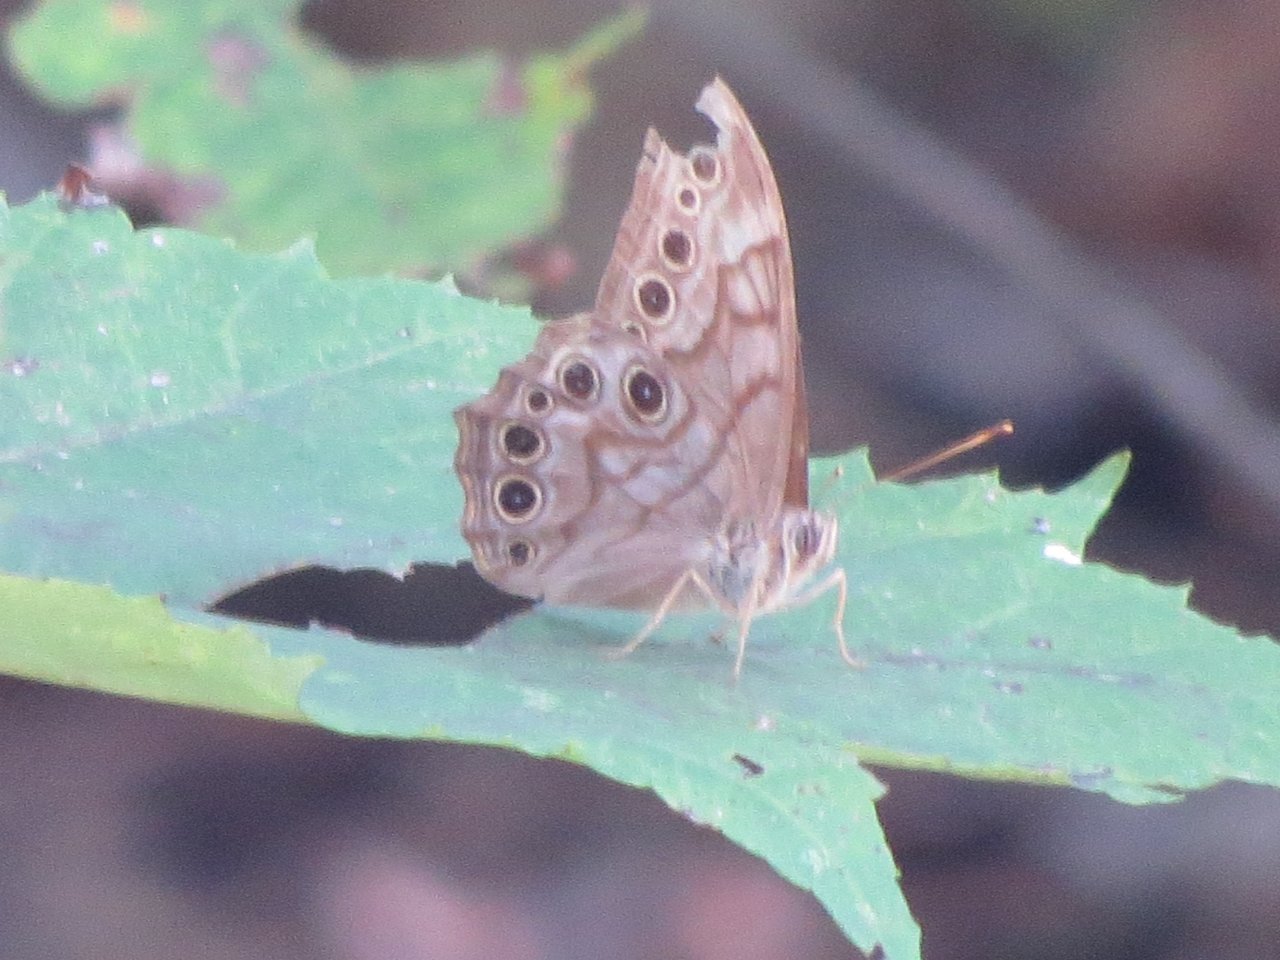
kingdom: Animalia
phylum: Arthropoda
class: Insecta
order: Lepidoptera
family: Nymphalidae
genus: Lethe
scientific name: Lethe creola
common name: Creole Pearly-Eye
